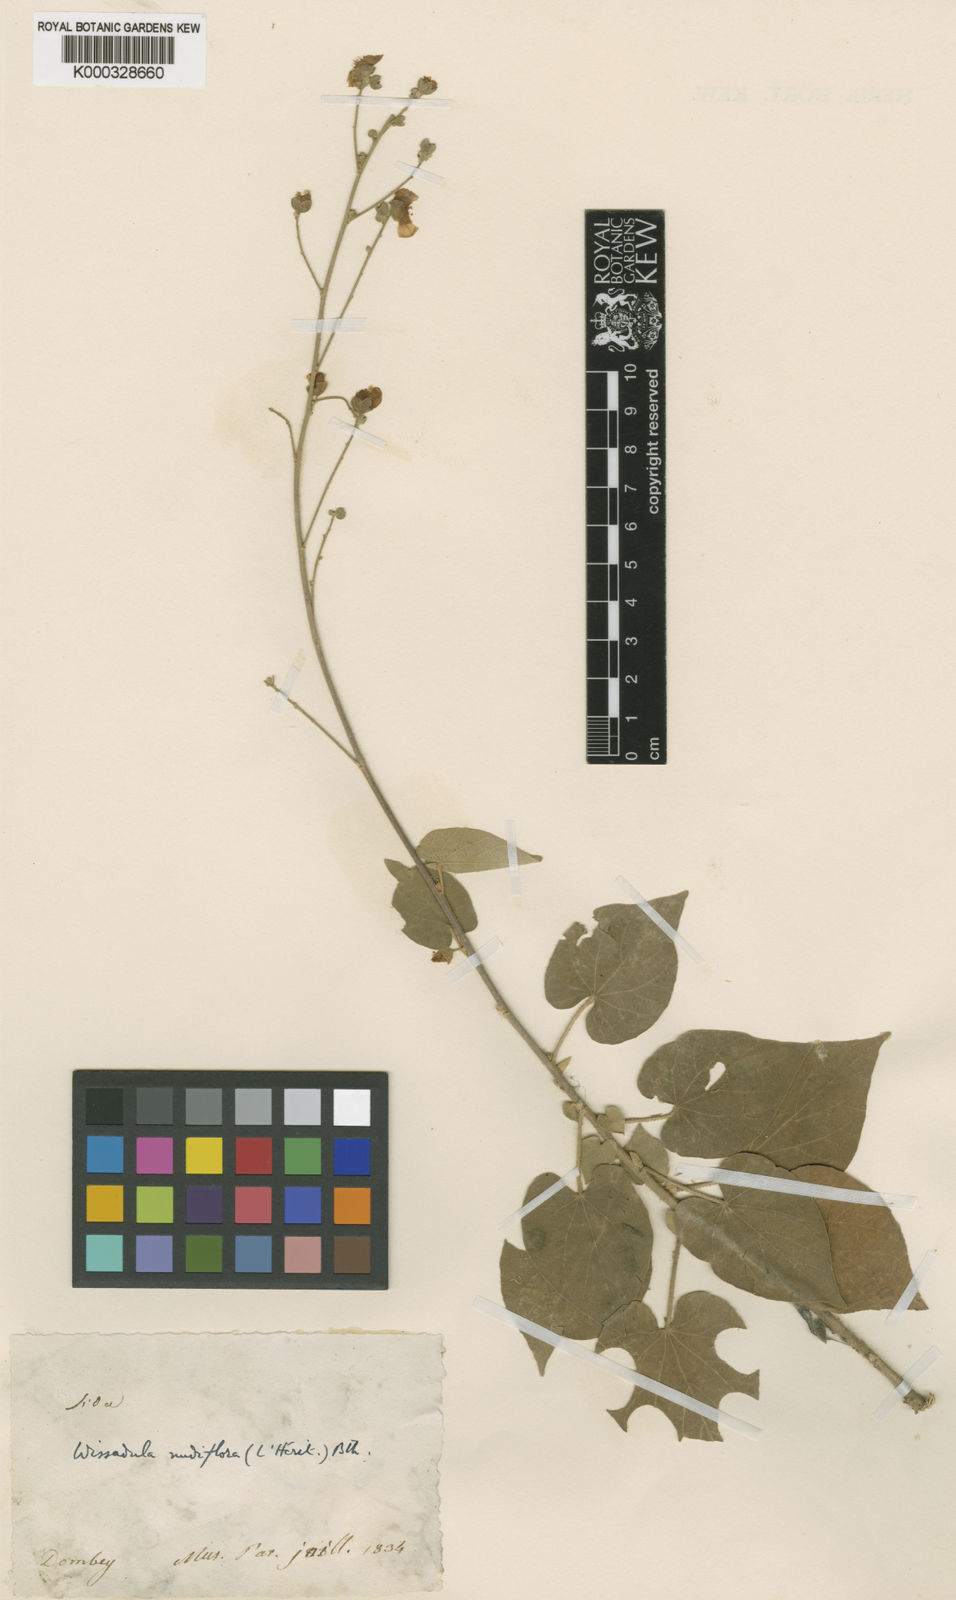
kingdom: Plantae
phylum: Tracheophyta
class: Magnoliopsida
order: Malvales
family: Malvaceae
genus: Wissadula
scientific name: Wissadula
